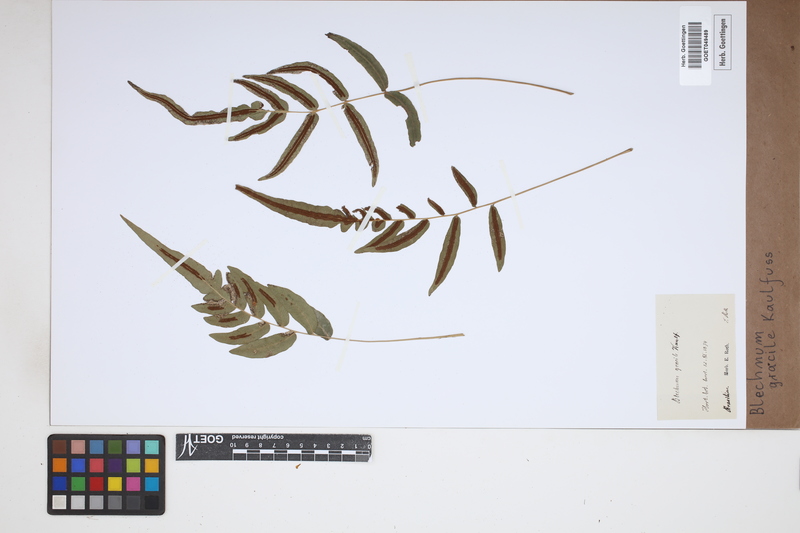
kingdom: Plantae
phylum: Tracheophyta
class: Polypodiopsida
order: Polypodiales
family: Blechnaceae
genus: Blechnum
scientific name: Blechnum gracile
